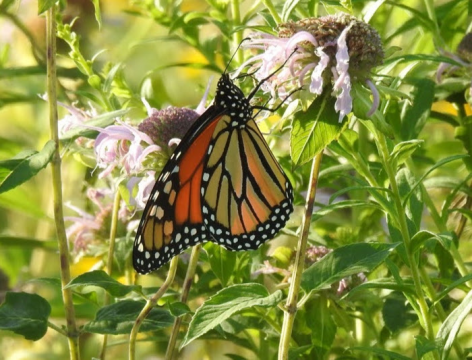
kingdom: Animalia
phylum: Arthropoda
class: Insecta
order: Lepidoptera
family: Nymphalidae
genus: Danaus
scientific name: Danaus plexippus
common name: Monarch
